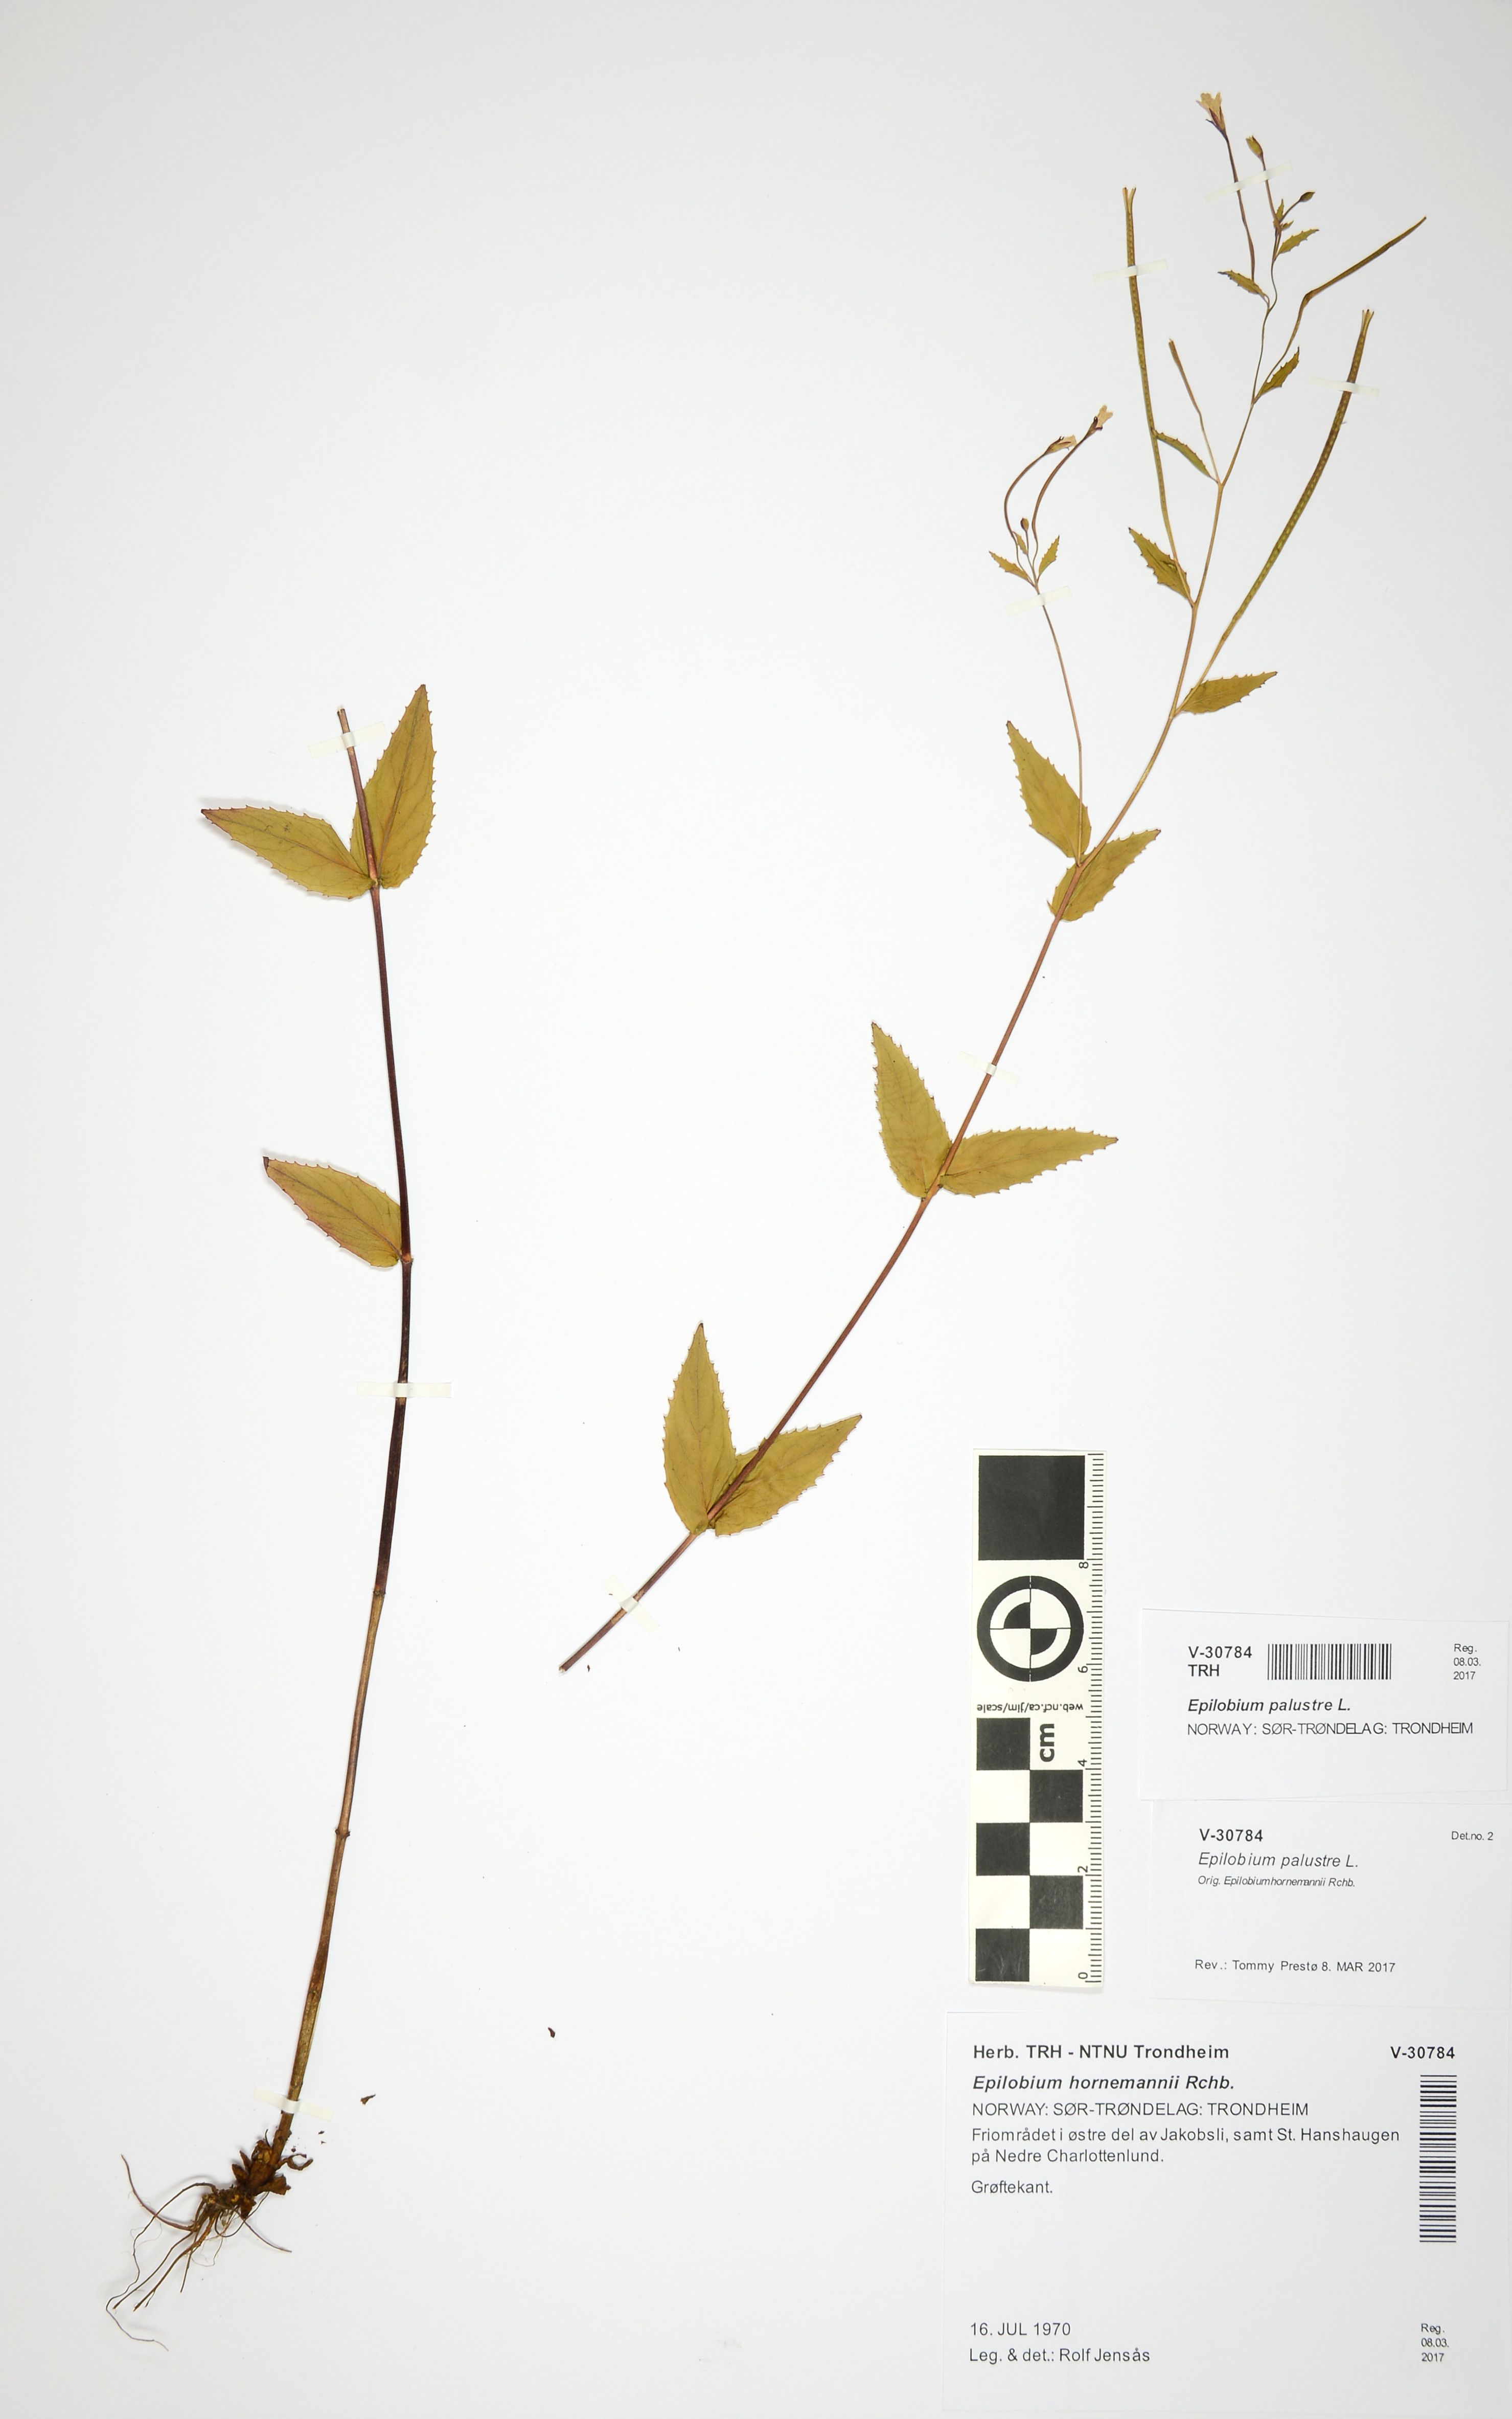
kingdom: Plantae
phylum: Tracheophyta
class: Magnoliopsida
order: Myrtales
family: Onagraceae
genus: Epilobium
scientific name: Epilobium palustre
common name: Marsh willowherb
